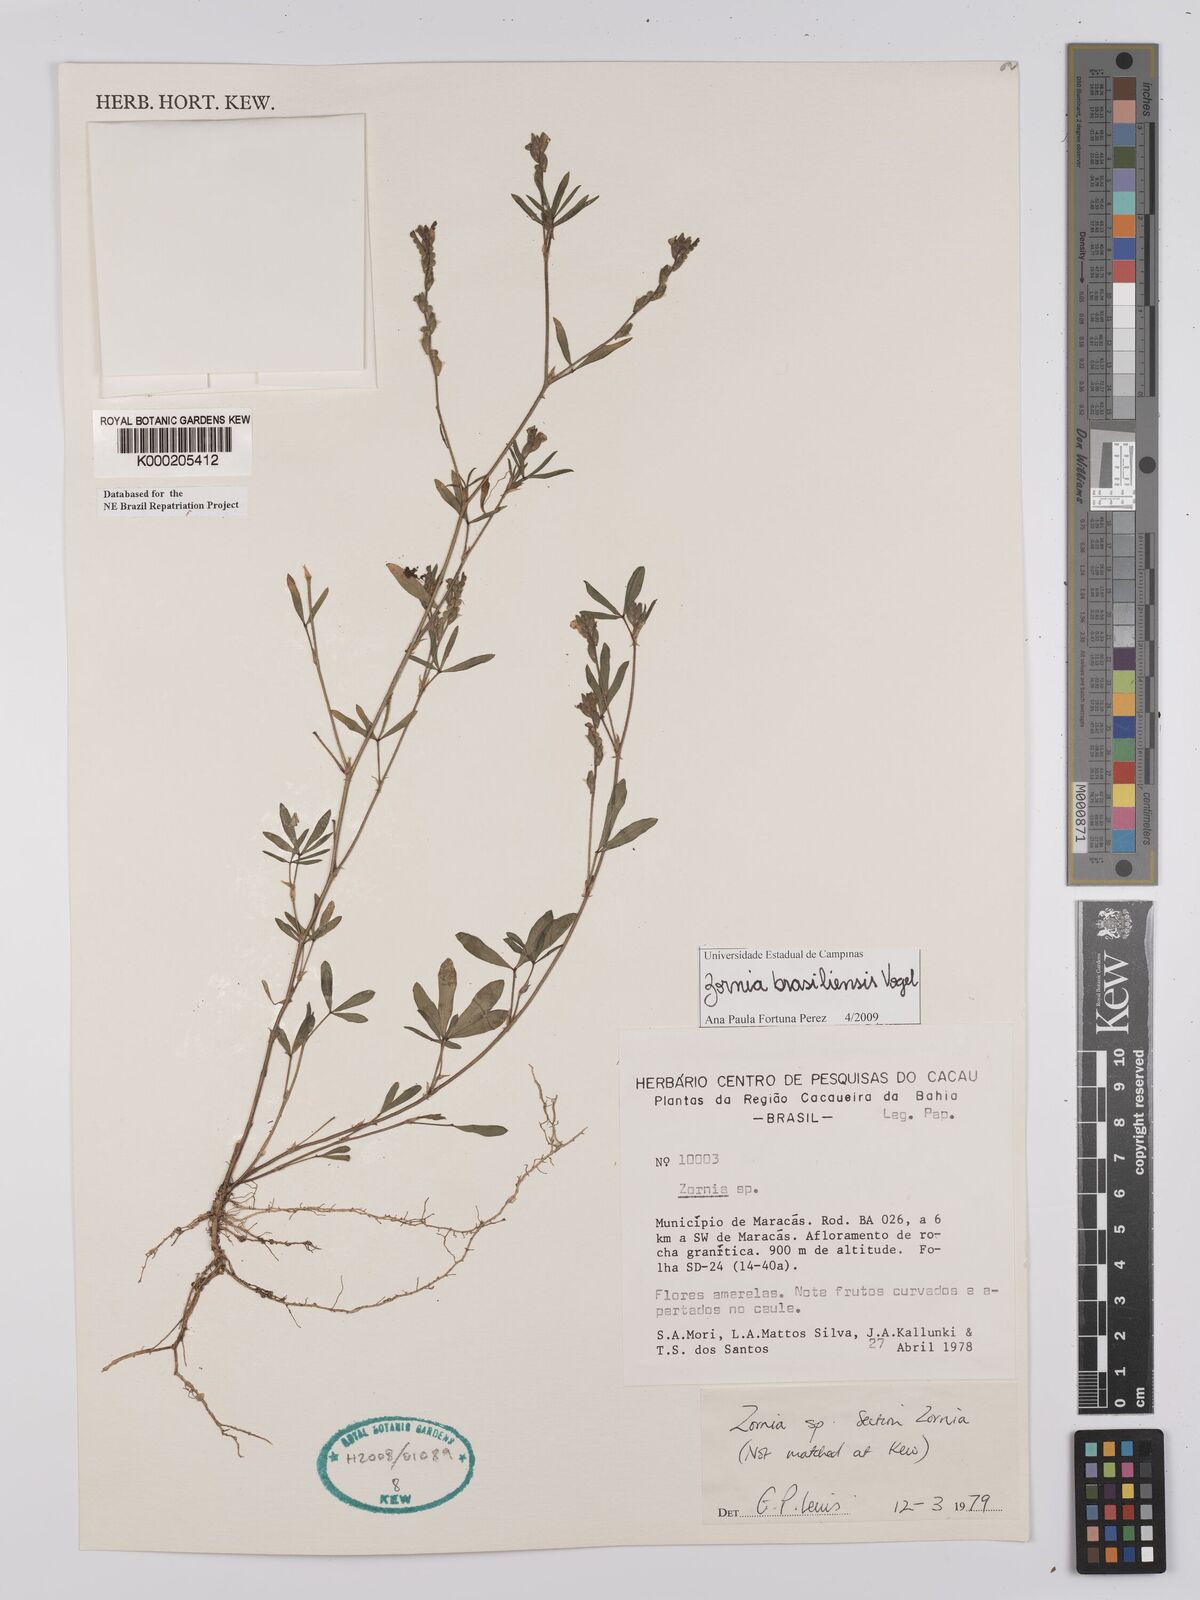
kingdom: Plantae
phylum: Tracheophyta
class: Magnoliopsida
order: Fabales
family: Fabaceae
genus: Zornia
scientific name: Zornia
